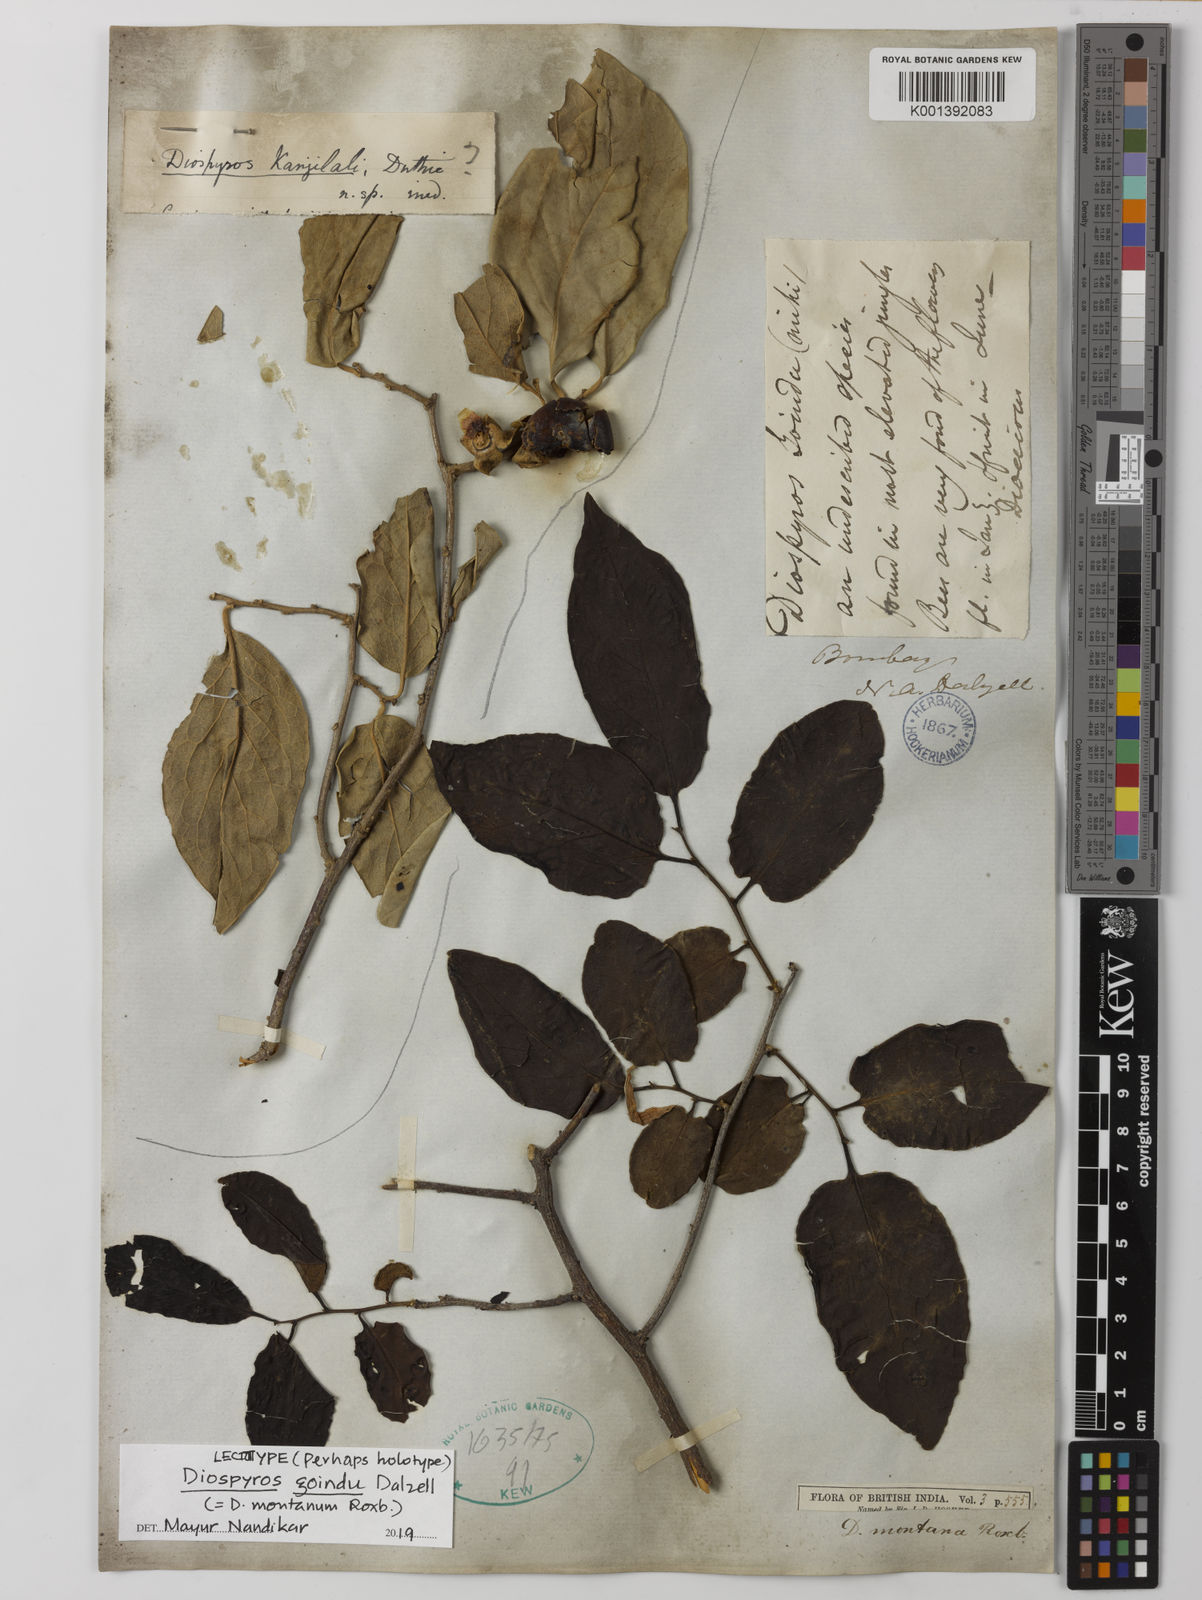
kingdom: Plantae
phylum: Tracheophyta
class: Magnoliopsida
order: Ericales
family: Ebenaceae
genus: Diospyros
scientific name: Diospyros montana
